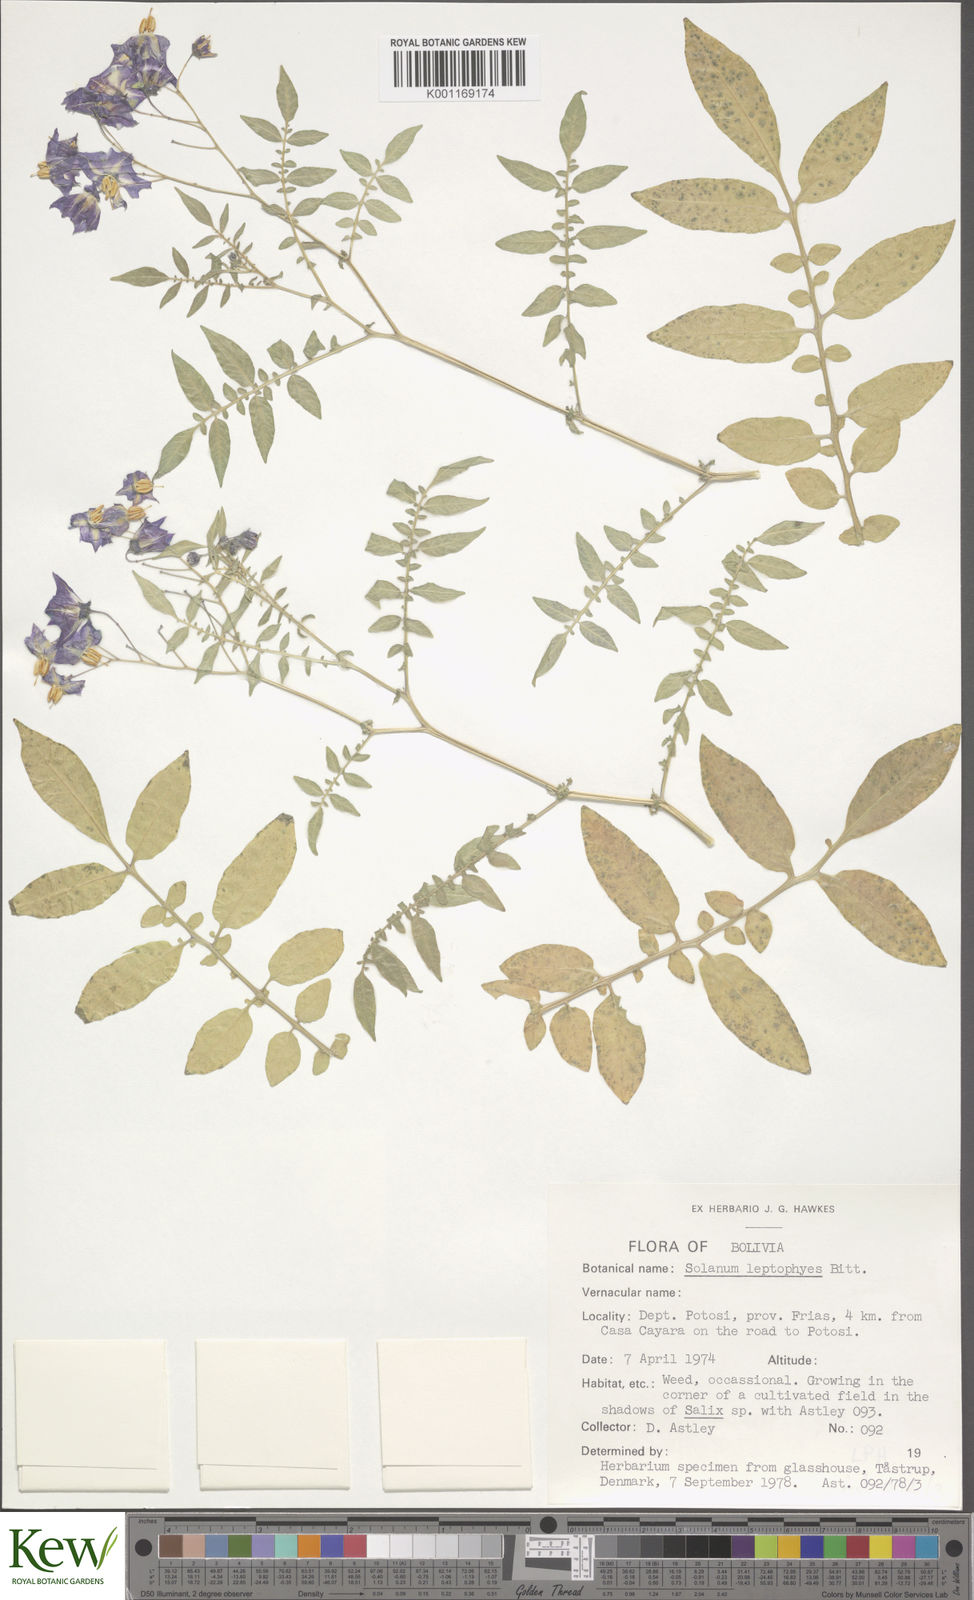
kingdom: Plantae
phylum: Tracheophyta
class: Magnoliopsida
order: Solanales
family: Solanaceae
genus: Solanum
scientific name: Solanum brevicaule
